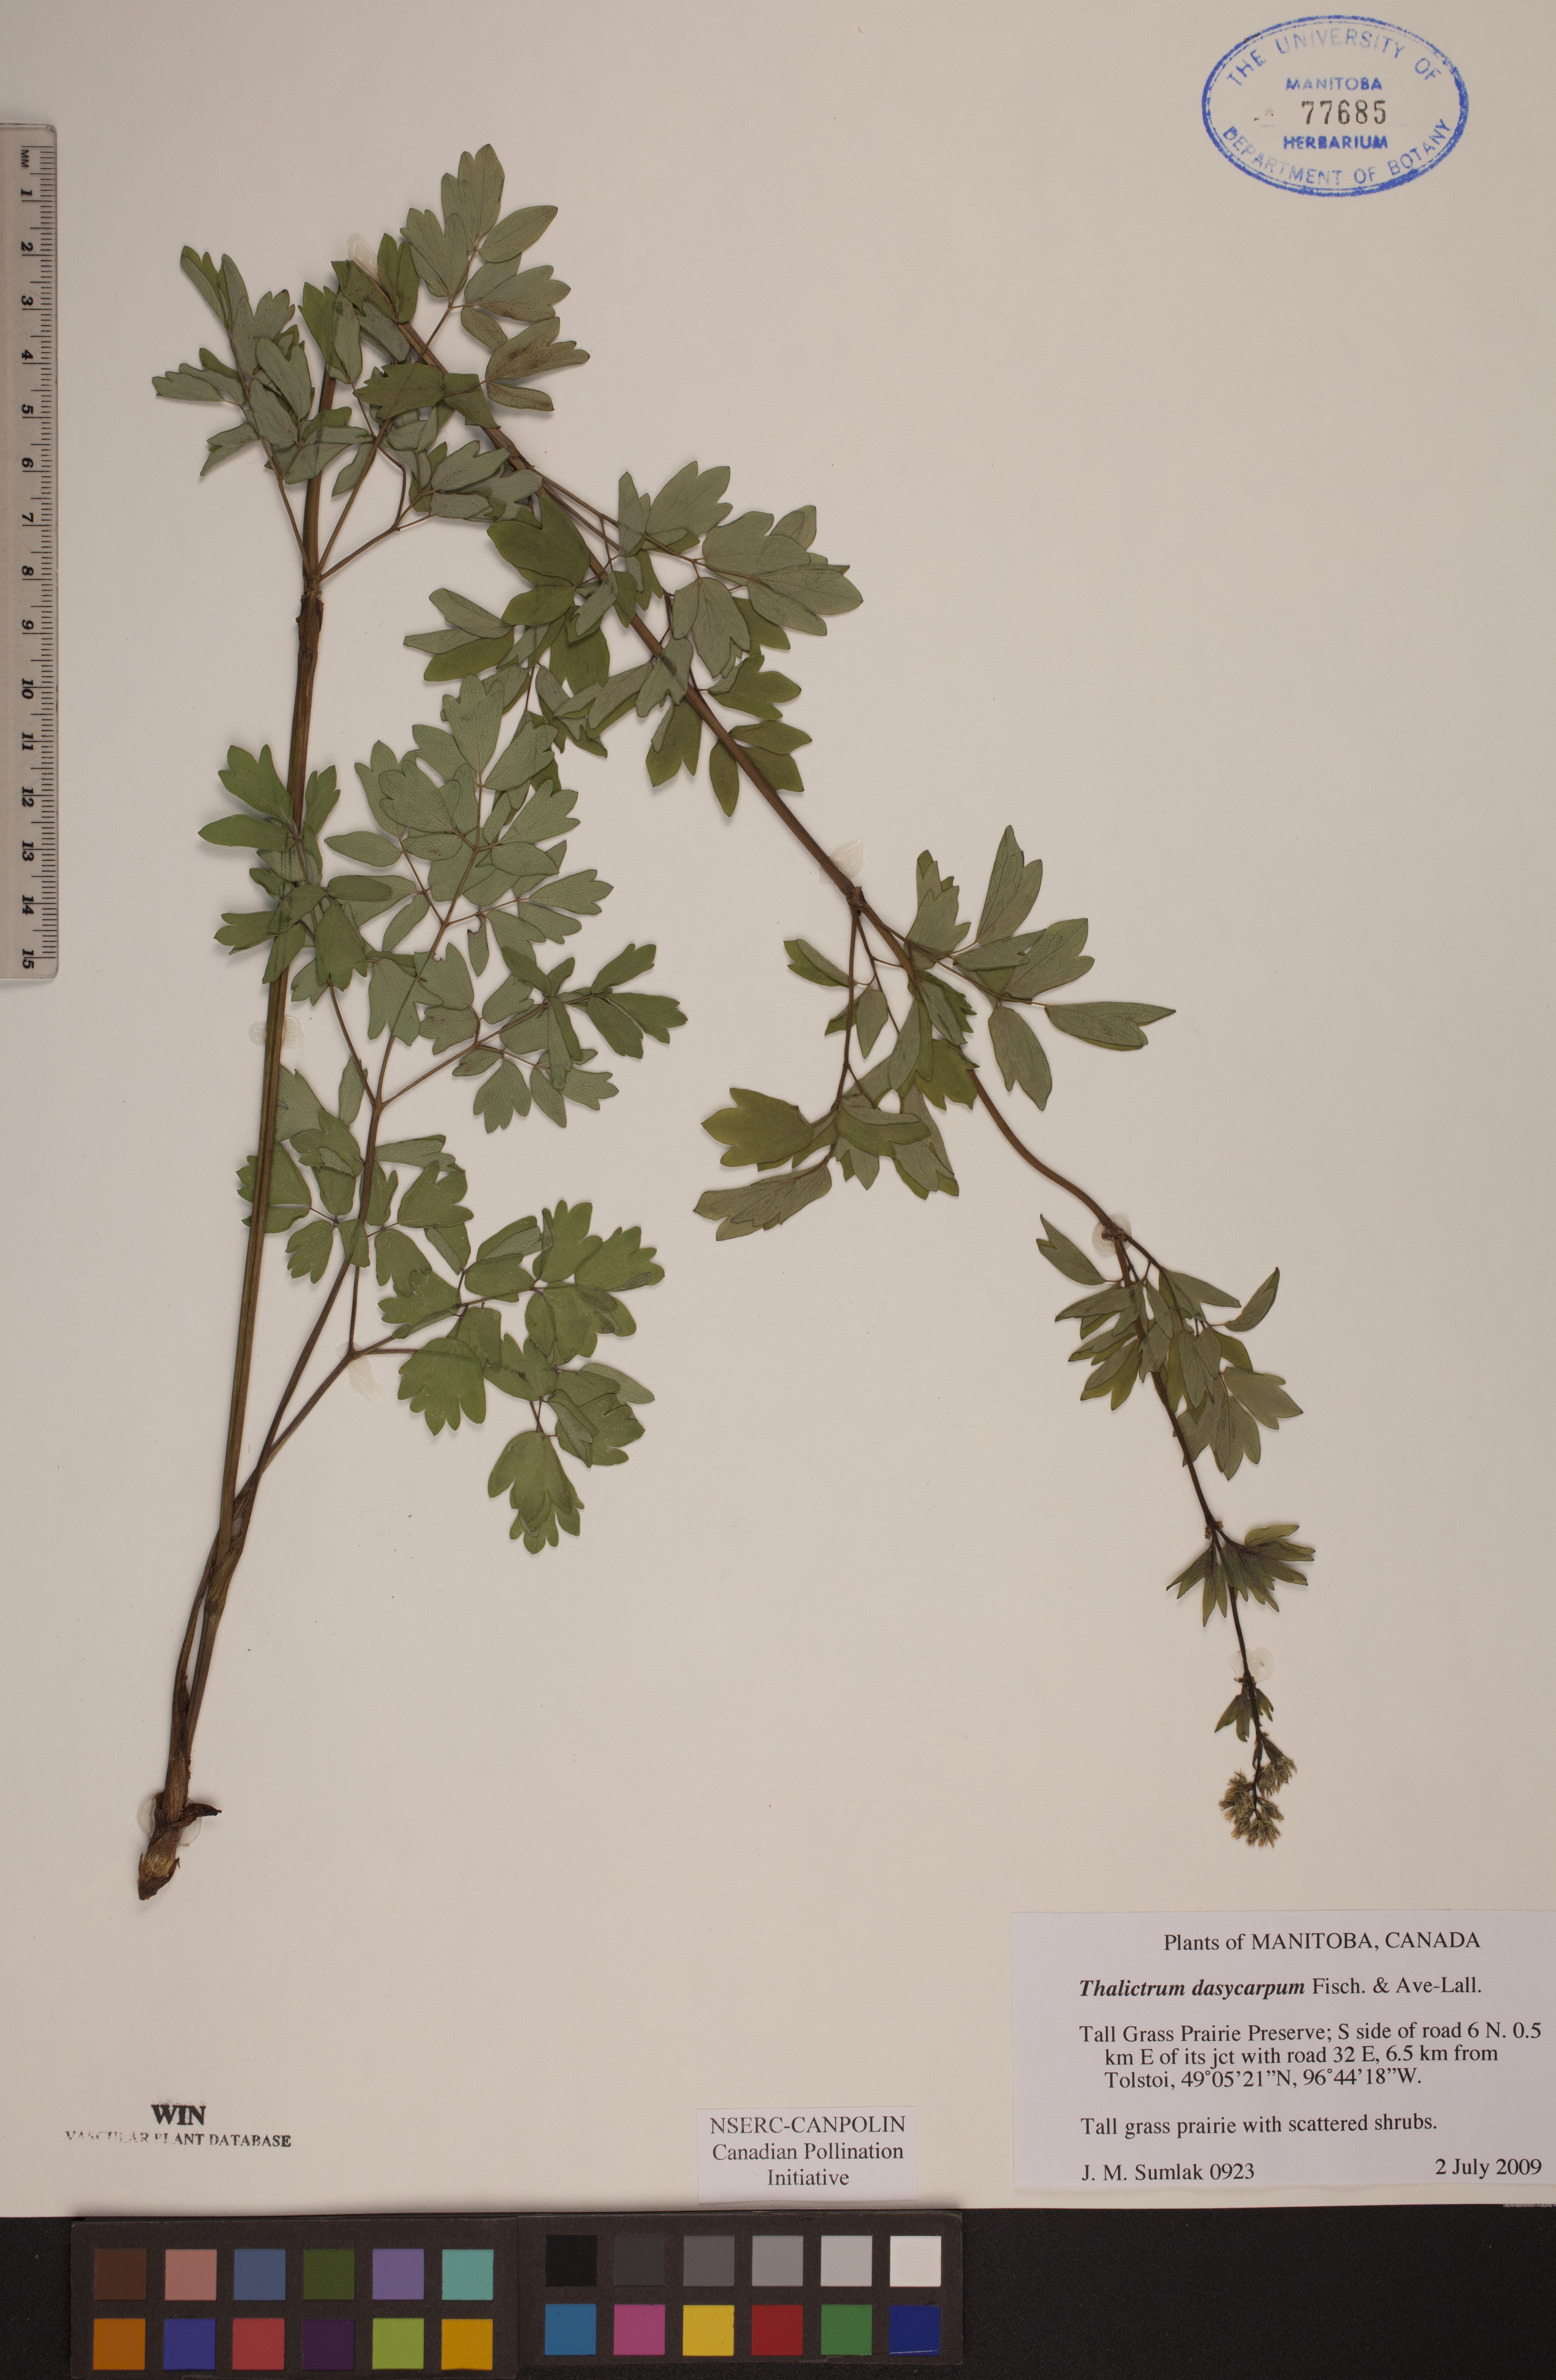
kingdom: Plantae
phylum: Tracheophyta
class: Magnoliopsida
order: Ranunculales
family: Ranunculaceae
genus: Thalictrum
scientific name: Thalictrum dasycarpum
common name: Purple meadow-rue
